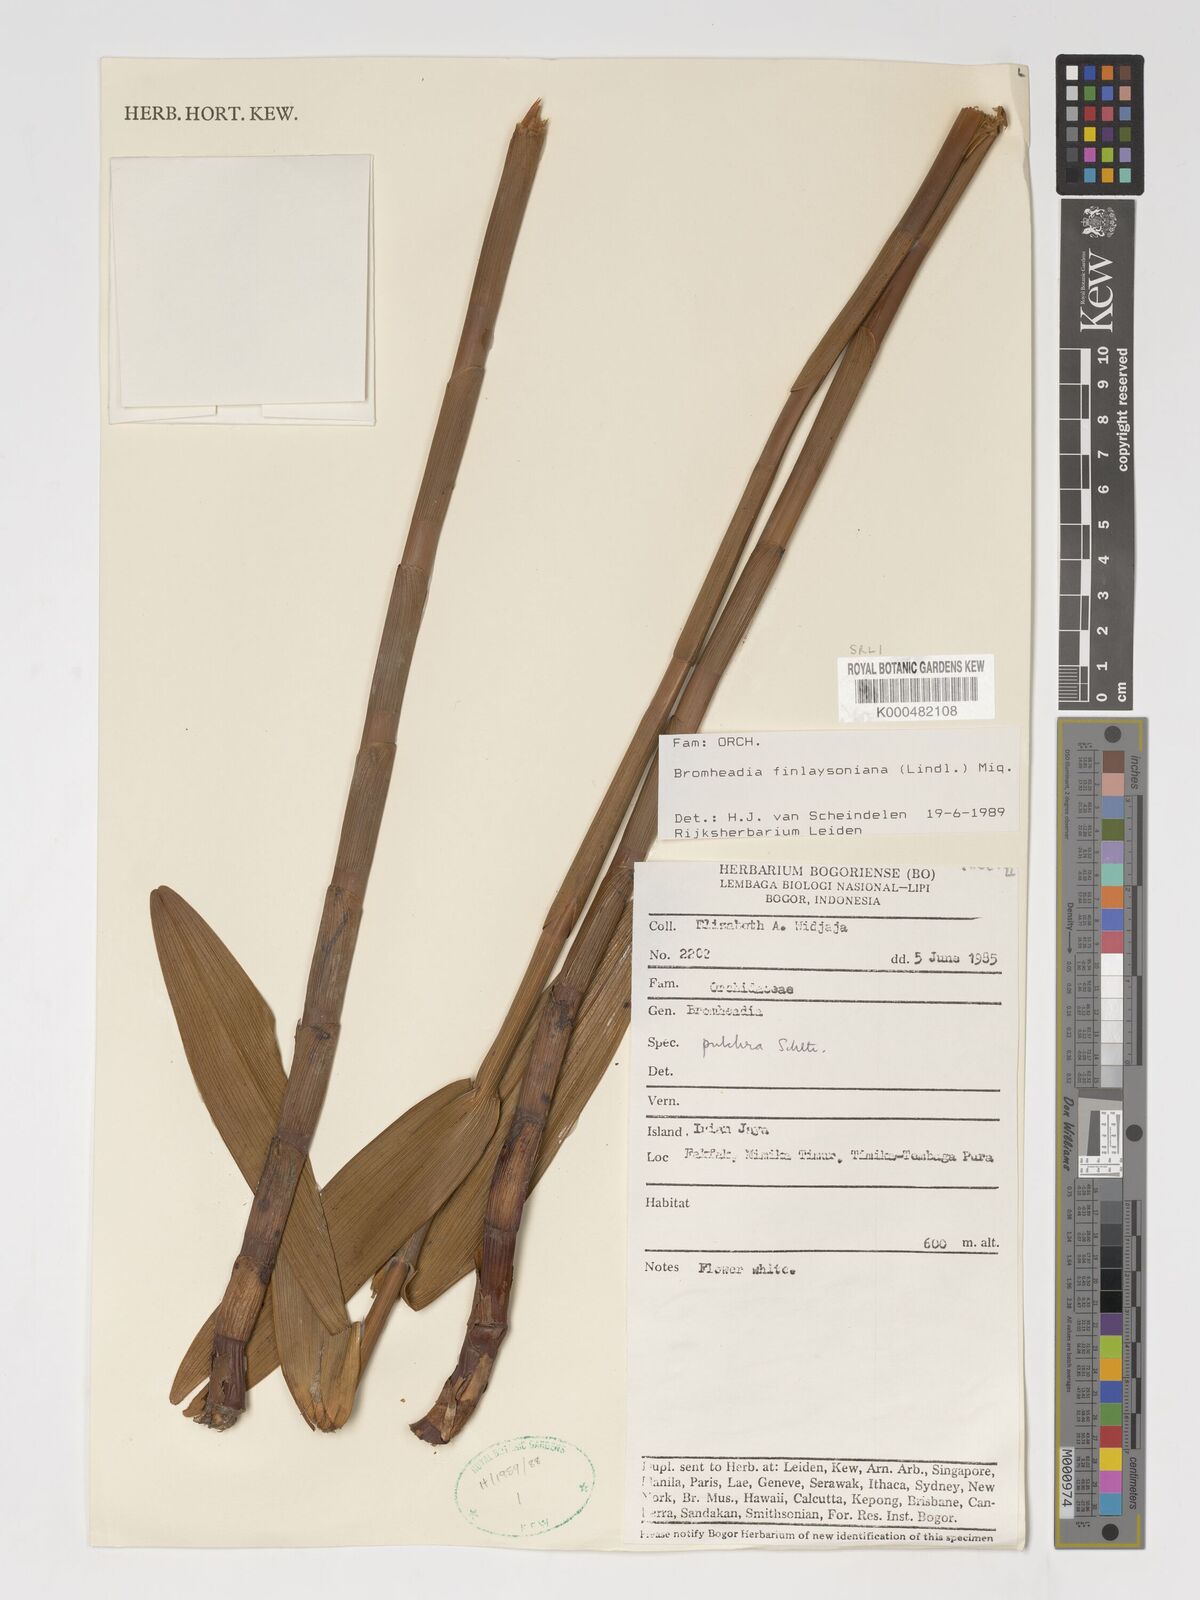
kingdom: Plantae
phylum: Tracheophyta
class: Liliopsida
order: Asparagales
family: Orchidaceae
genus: Bromheadia
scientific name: Bromheadia finlaysoniana
